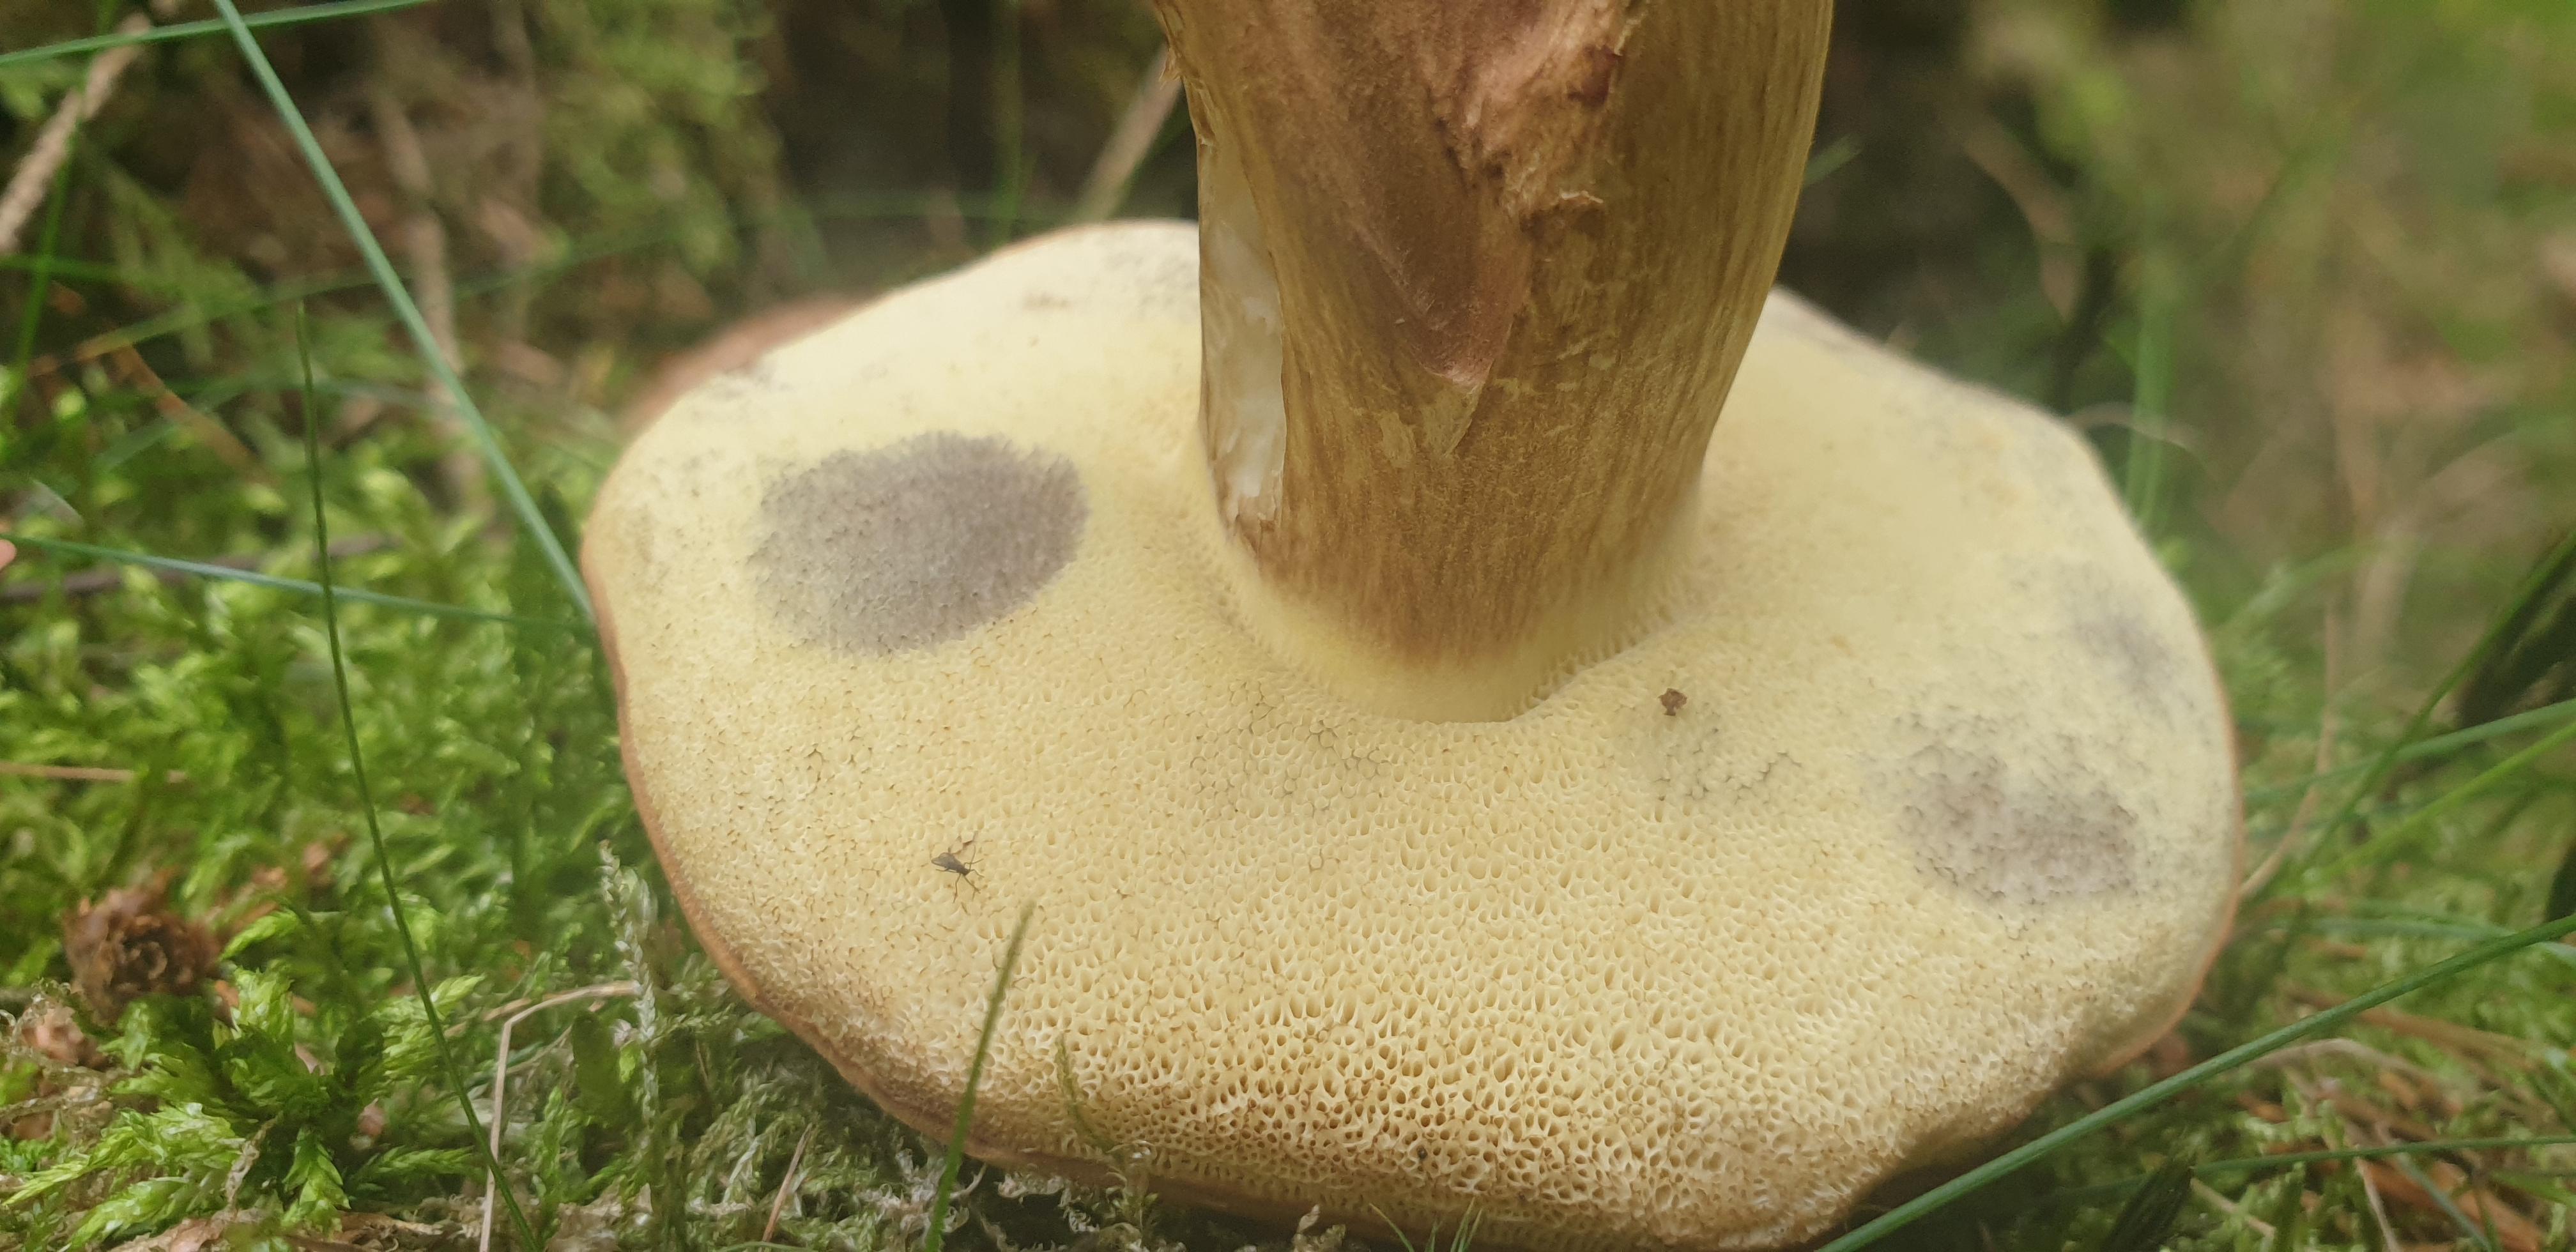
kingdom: Fungi
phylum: Basidiomycota
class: Agaricomycetes
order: Boletales
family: Boletaceae
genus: Imleria
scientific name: Imleria badia
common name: brunstokket rørhat
